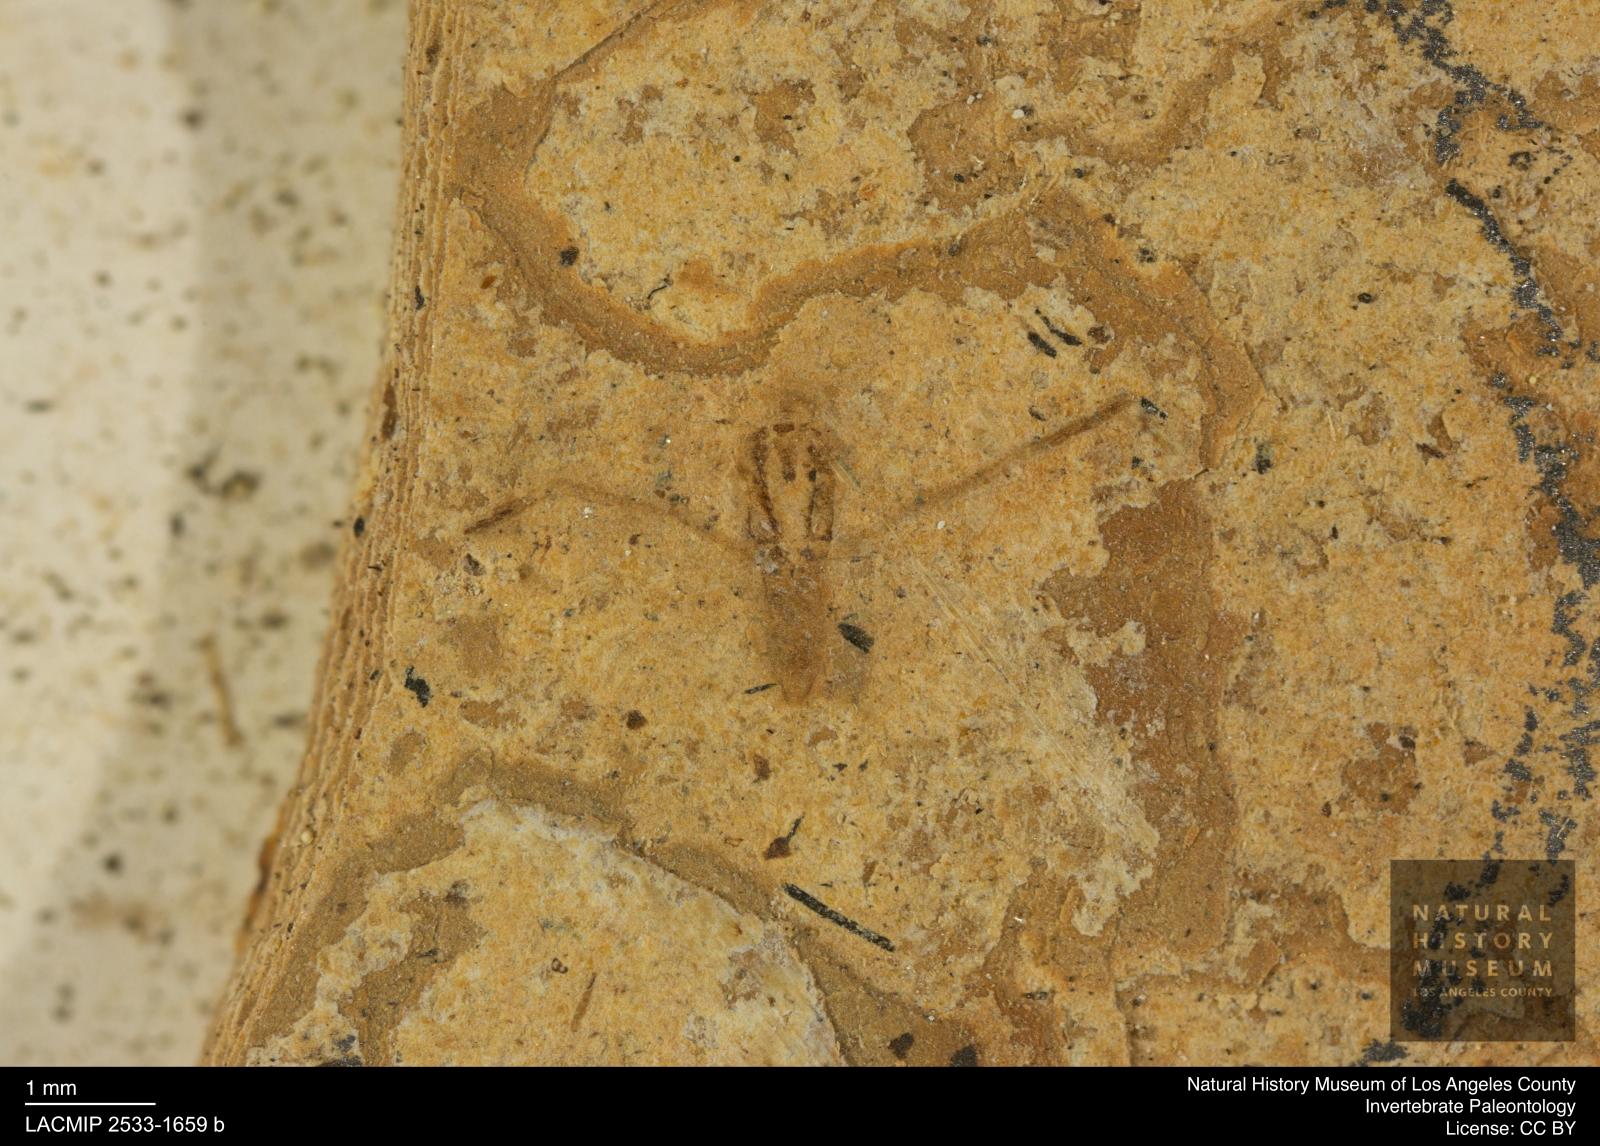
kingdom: Animalia
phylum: Arthropoda
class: Insecta
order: Hemiptera
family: Notonectidae
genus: Notonecta
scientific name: Notonecta
